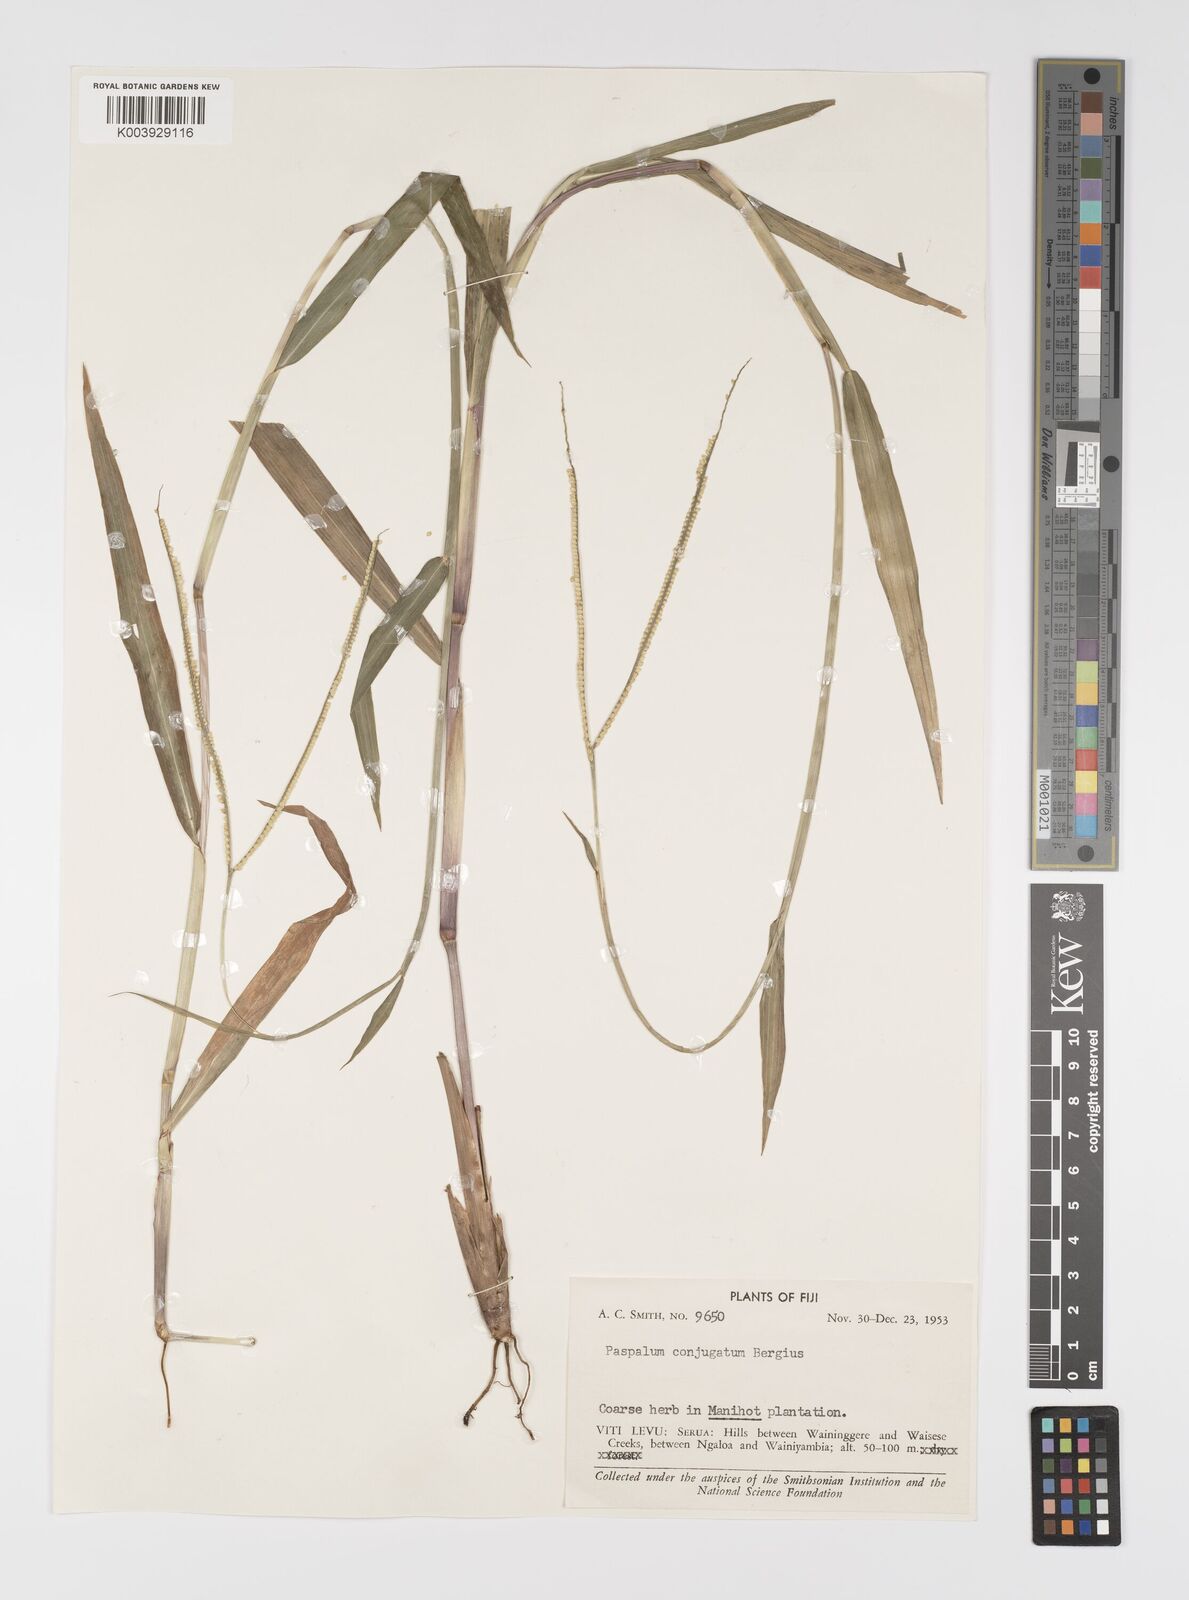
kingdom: Plantae
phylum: Tracheophyta
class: Liliopsida
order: Poales
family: Poaceae
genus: Paspalum
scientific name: Paspalum conjugatum
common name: Hilograss
